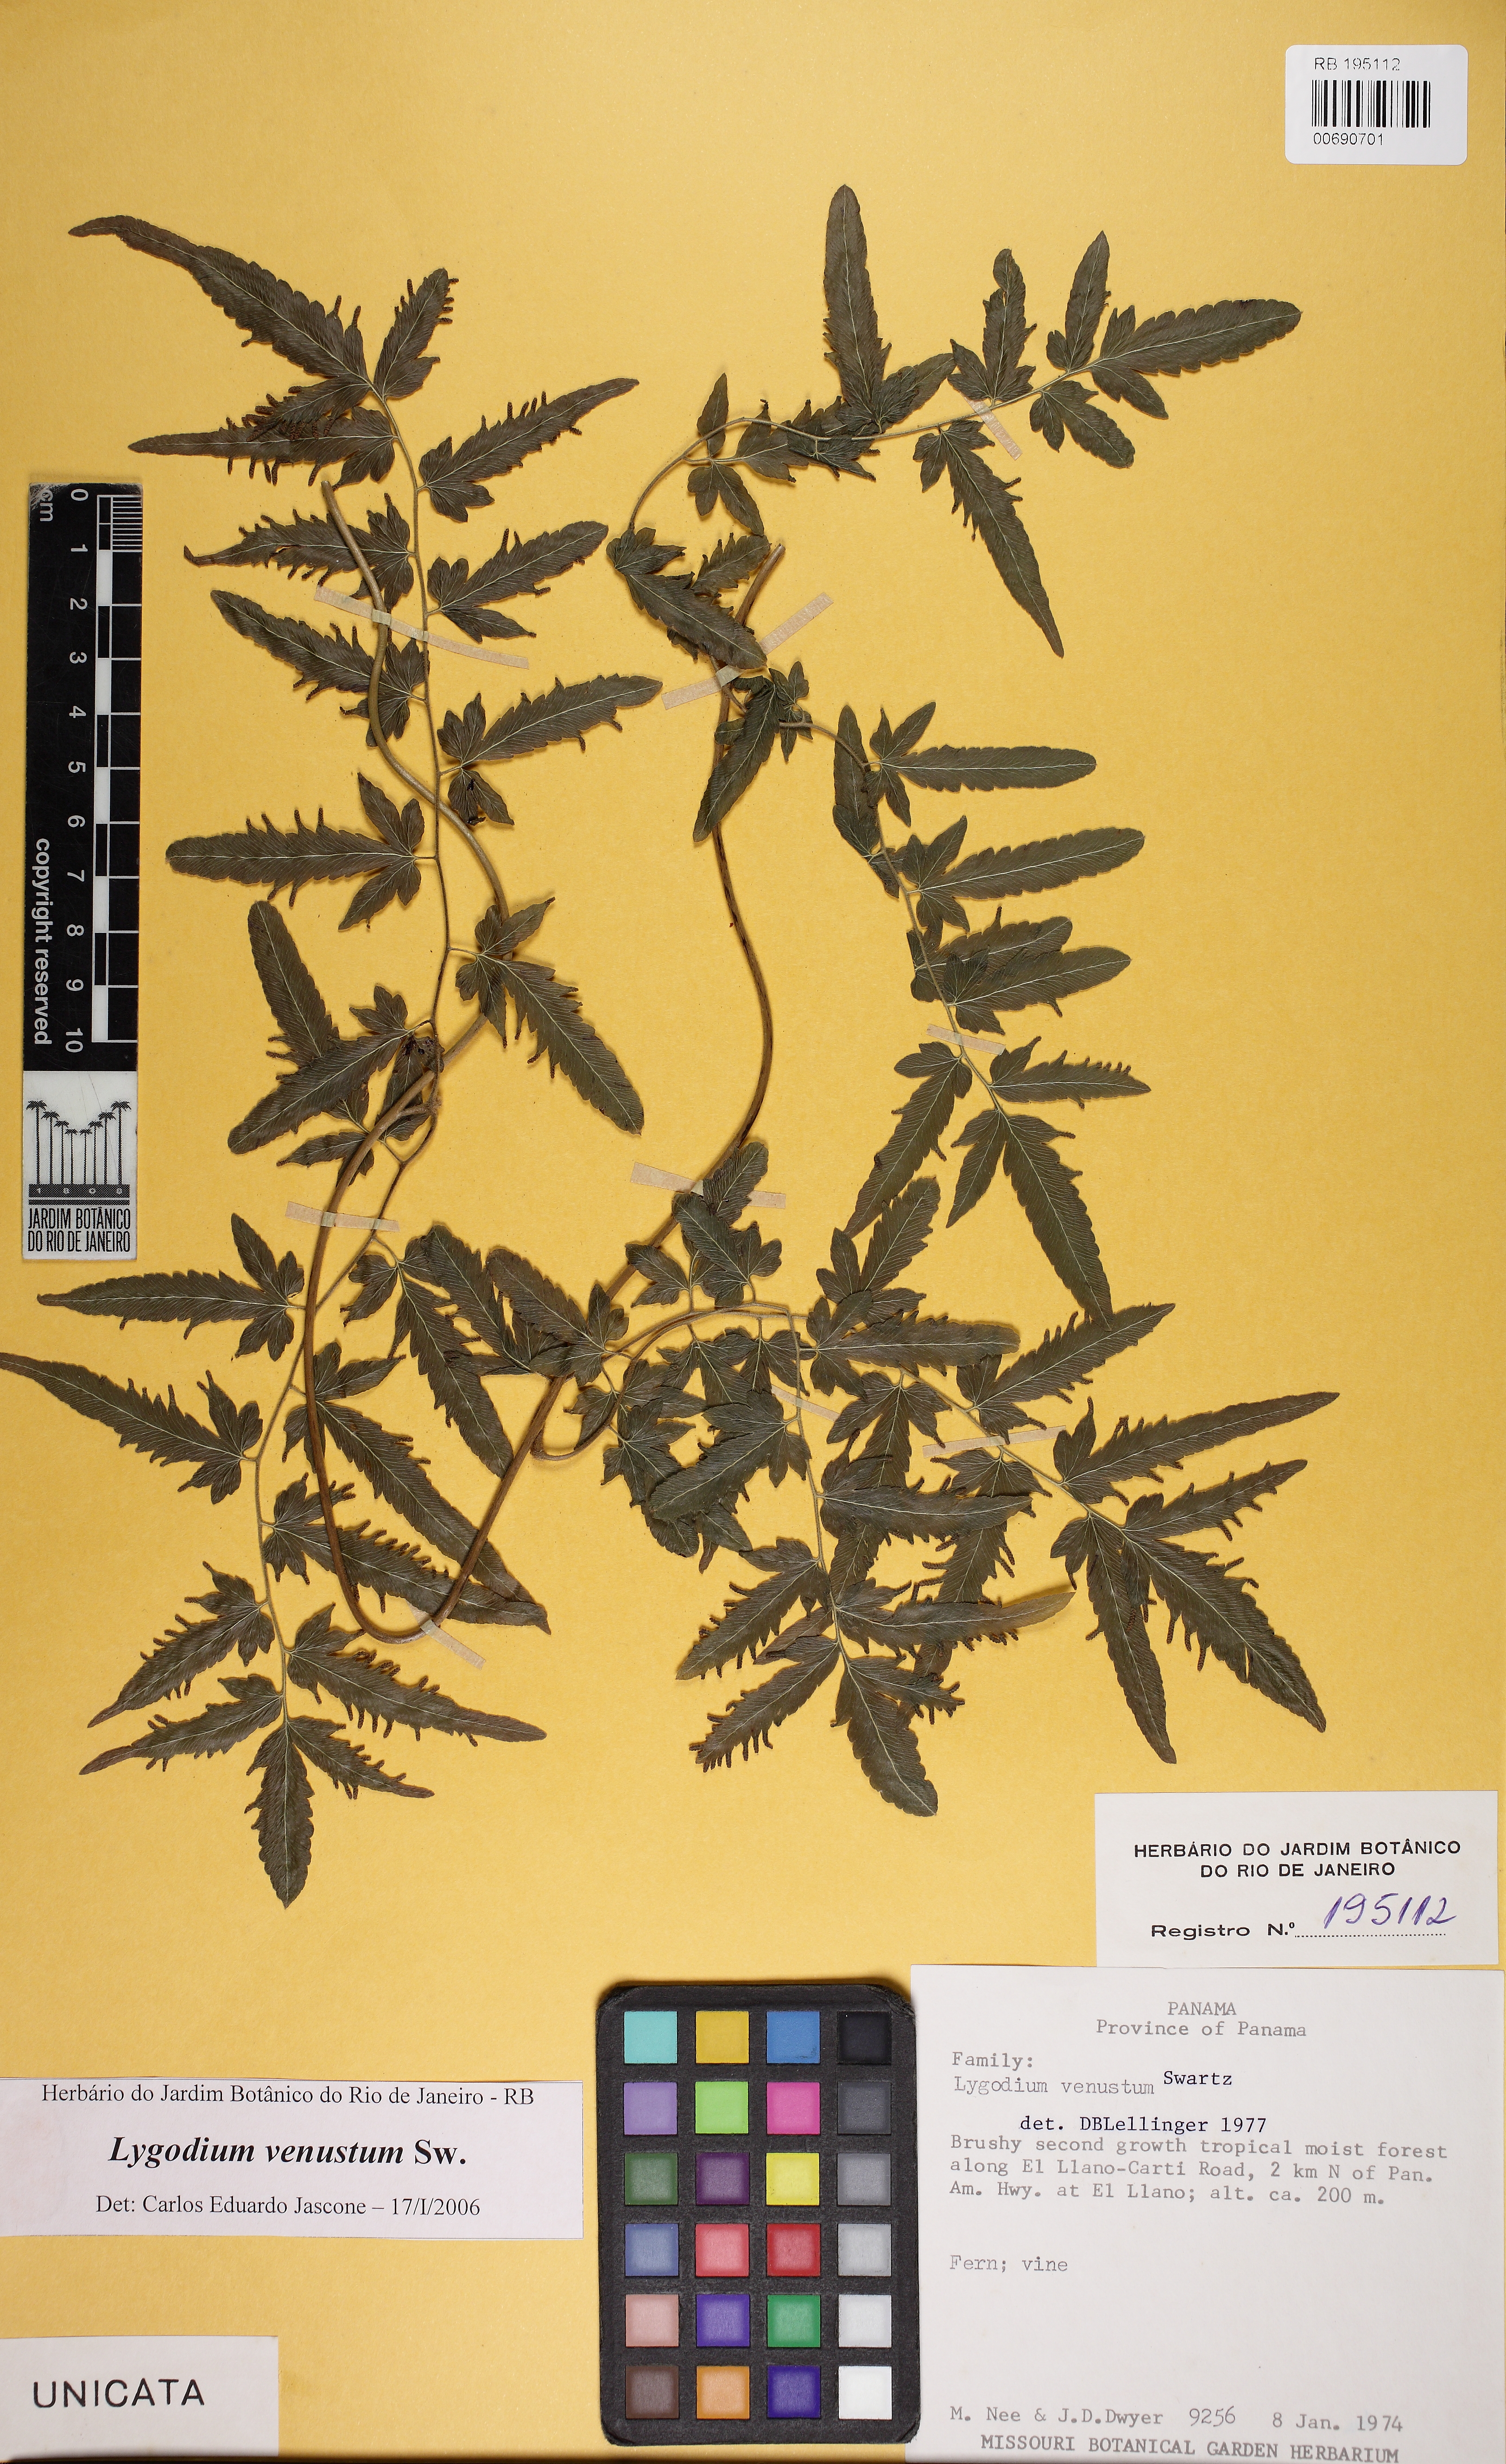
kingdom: Plantae
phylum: Tracheophyta
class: Polypodiopsida
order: Schizaeales
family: Lygodiaceae
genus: Lygodium
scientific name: Lygodium venustum
